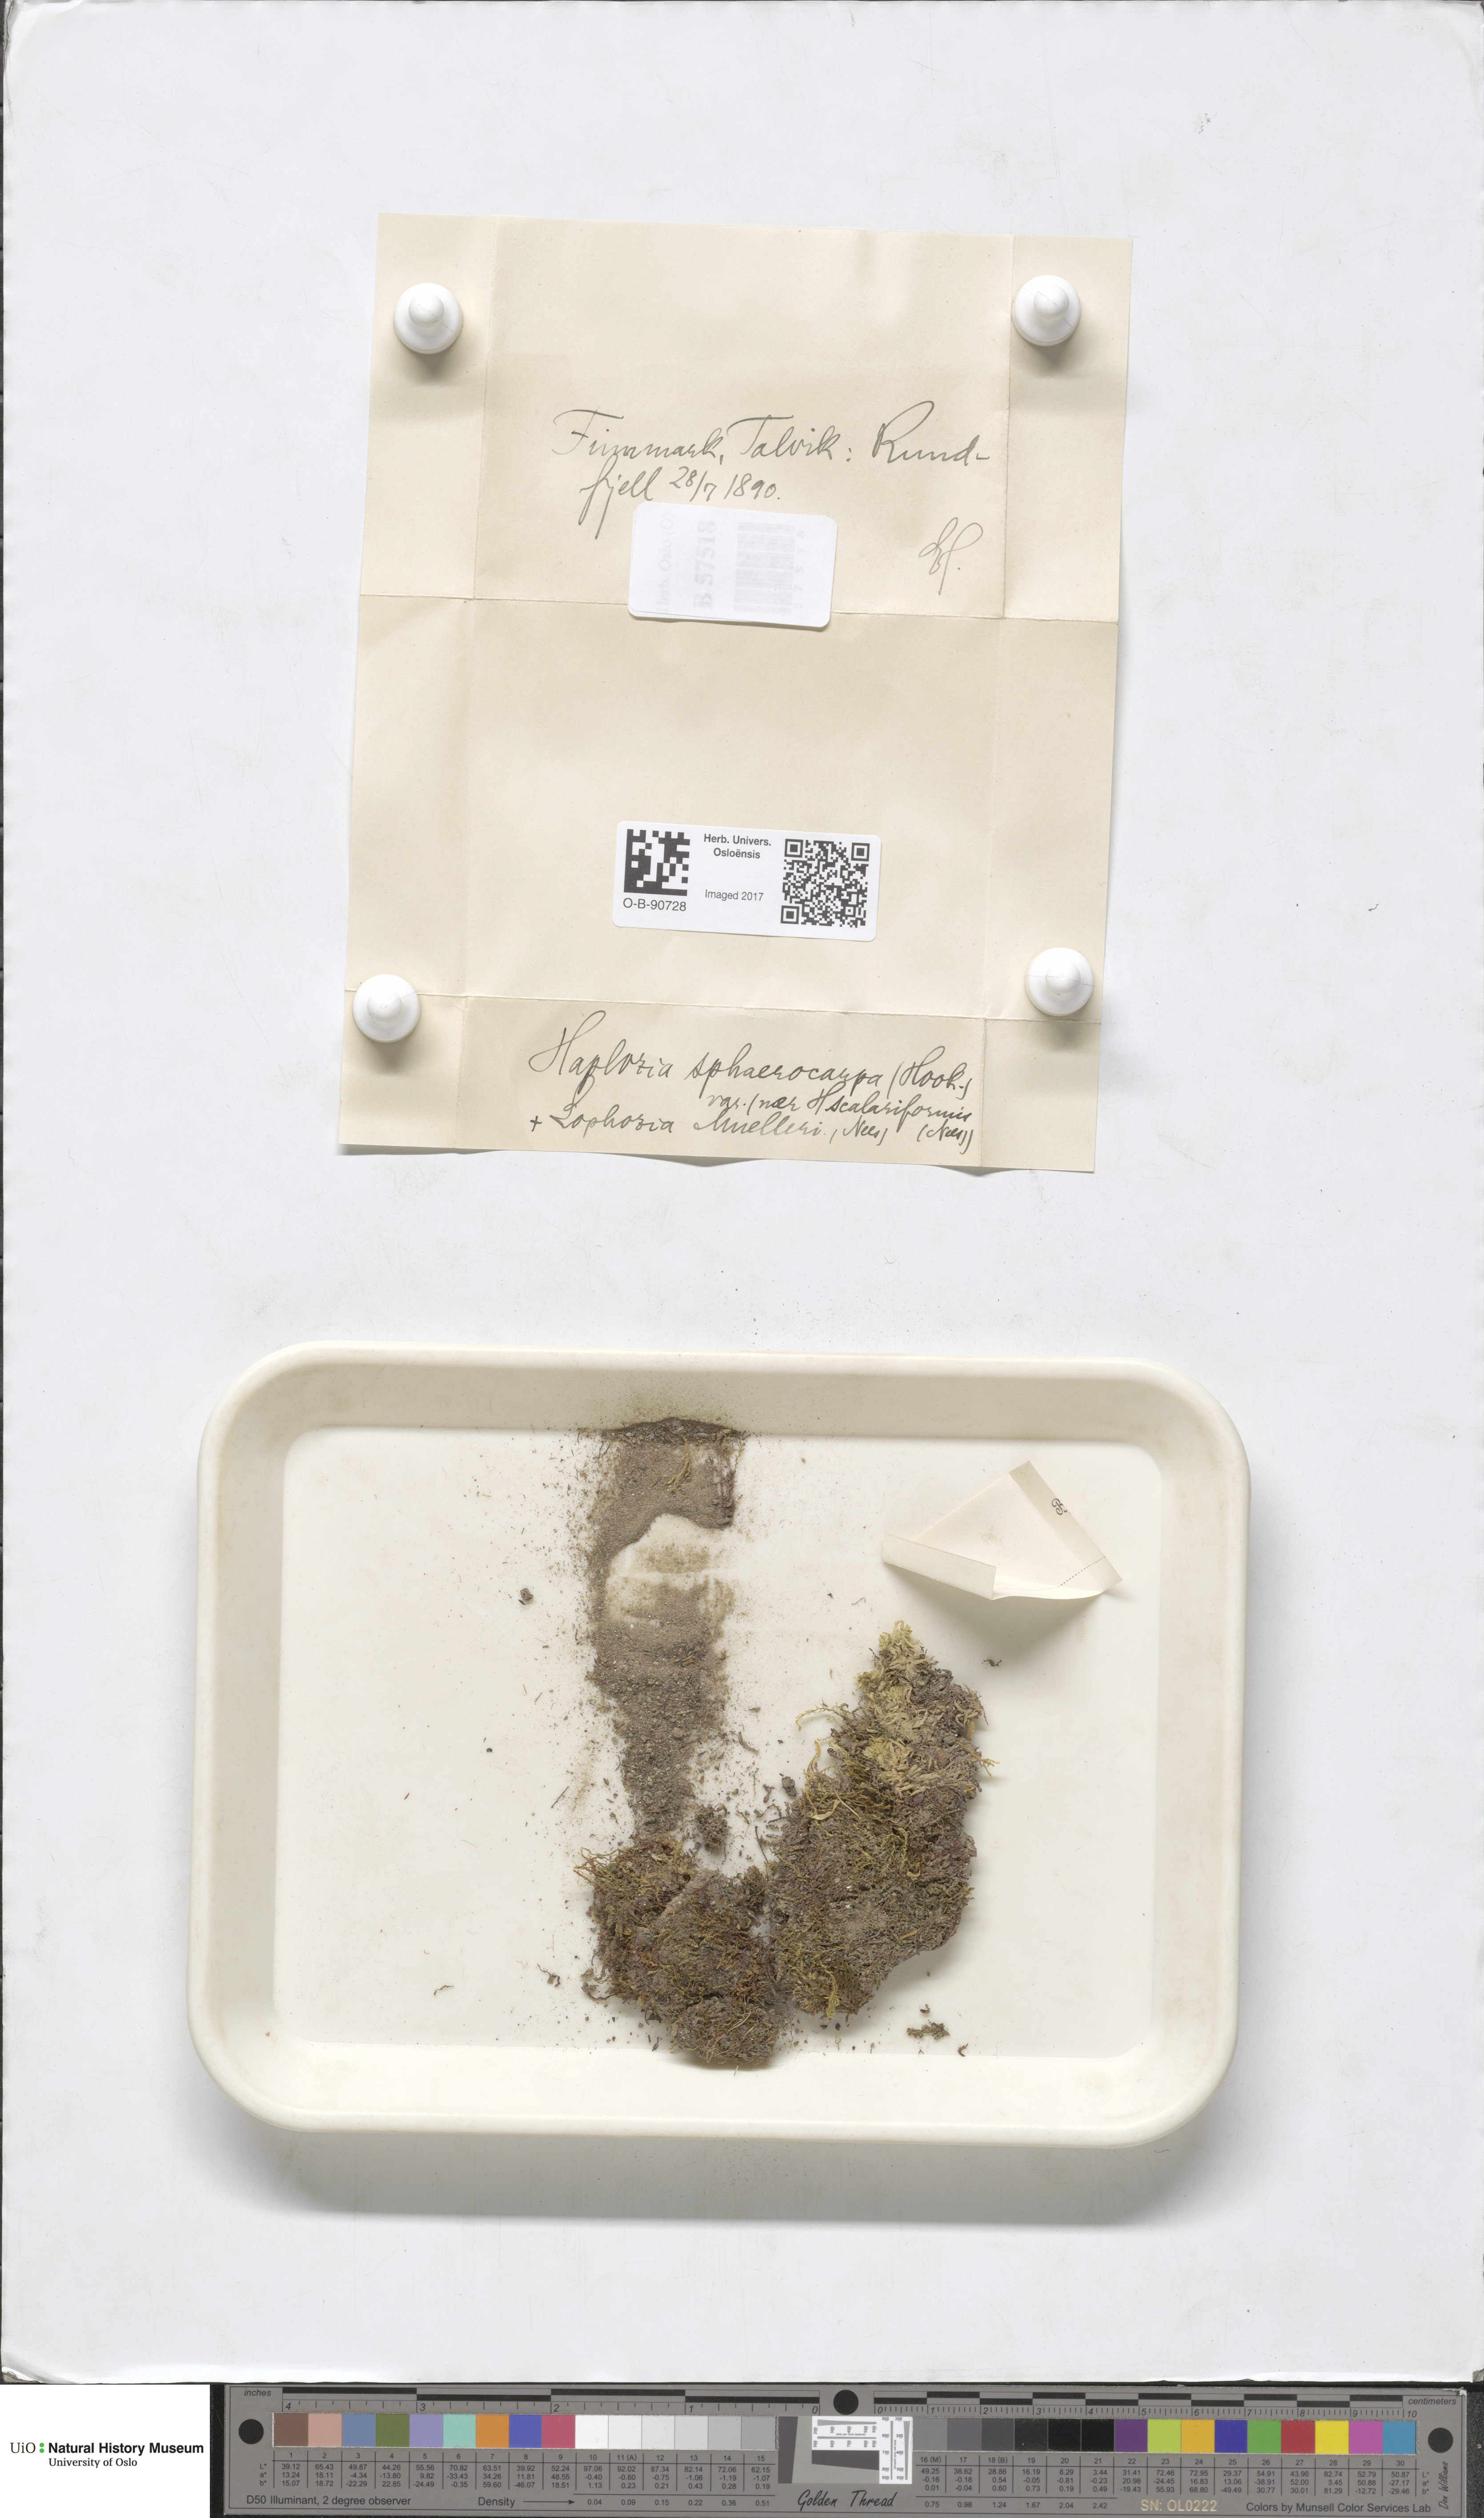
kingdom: Plantae
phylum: Marchantiophyta
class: Jungermanniopsida
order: Jungermanniales
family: Solenostomataceae
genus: Solenostoma
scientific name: Solenostoma sphaerocarpum
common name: Round-fruited flapwort
